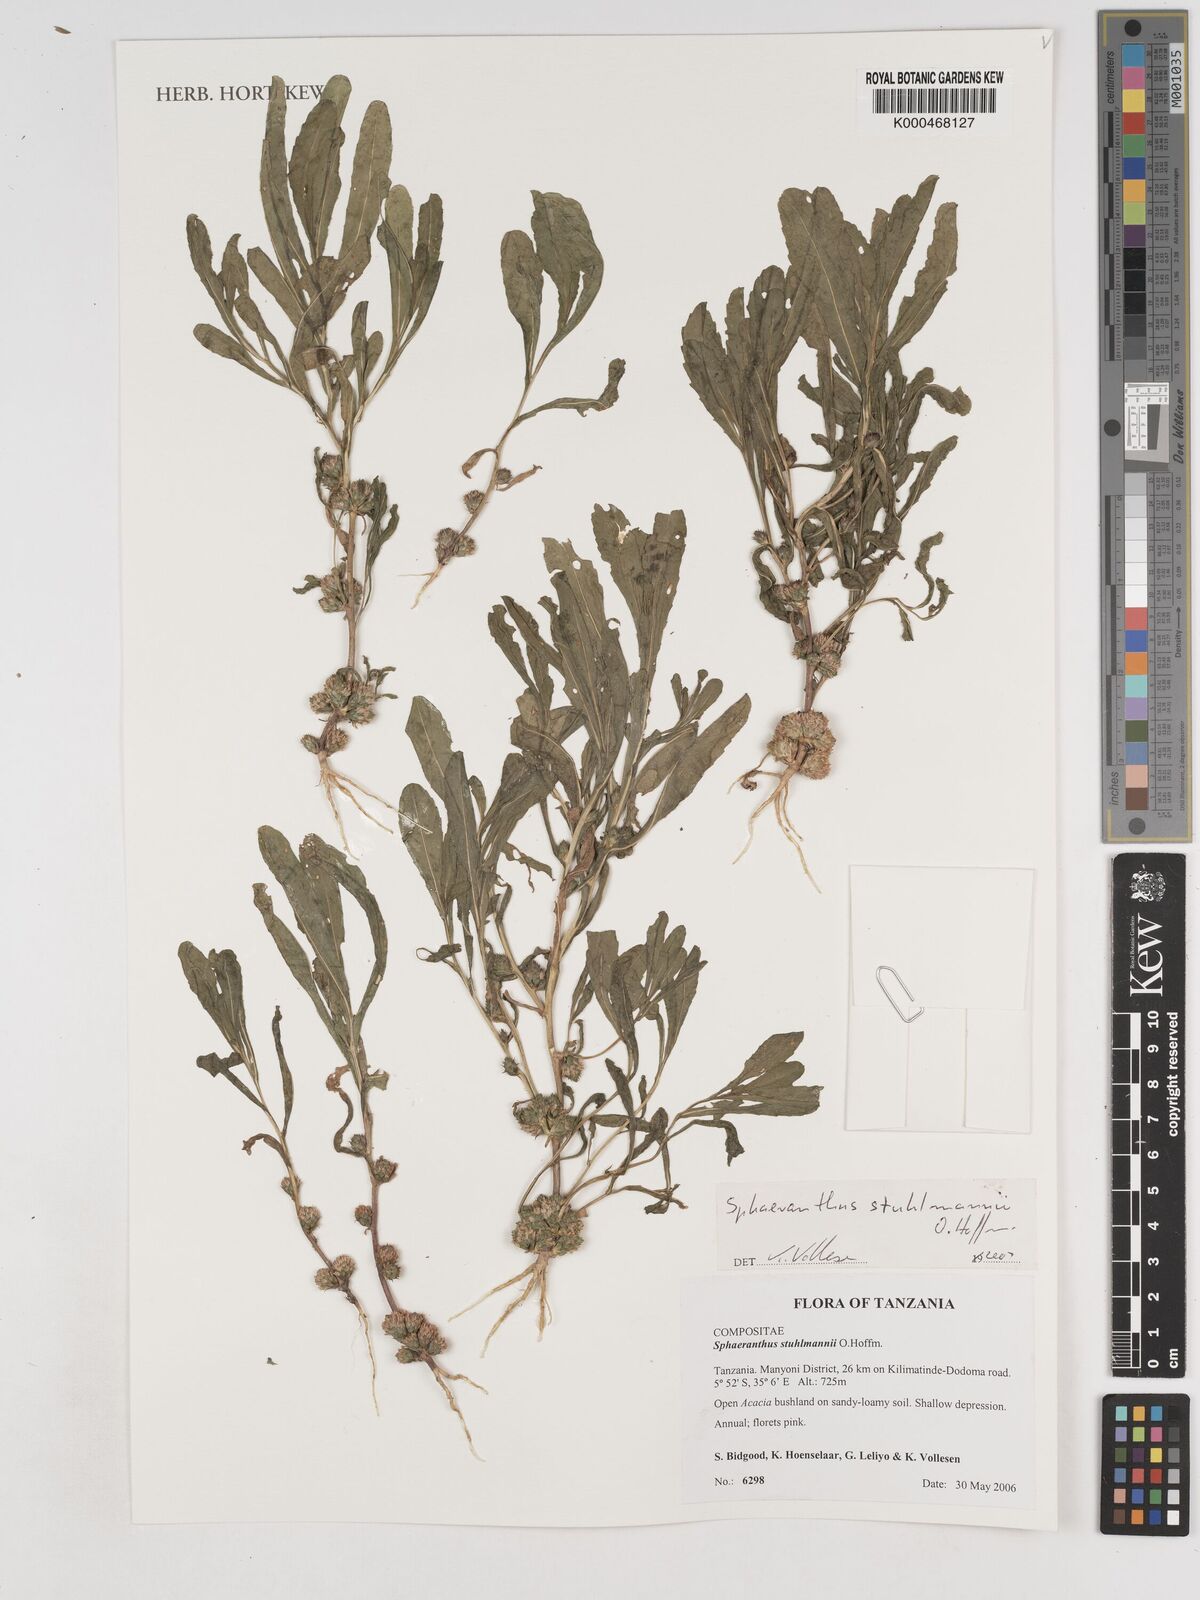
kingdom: Plantae
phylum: Tracheophyta
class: Magnoliopsida
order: Asterales
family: Asteraceae
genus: Sphaeranthus
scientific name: Sphaeranthus stuhlmannii
